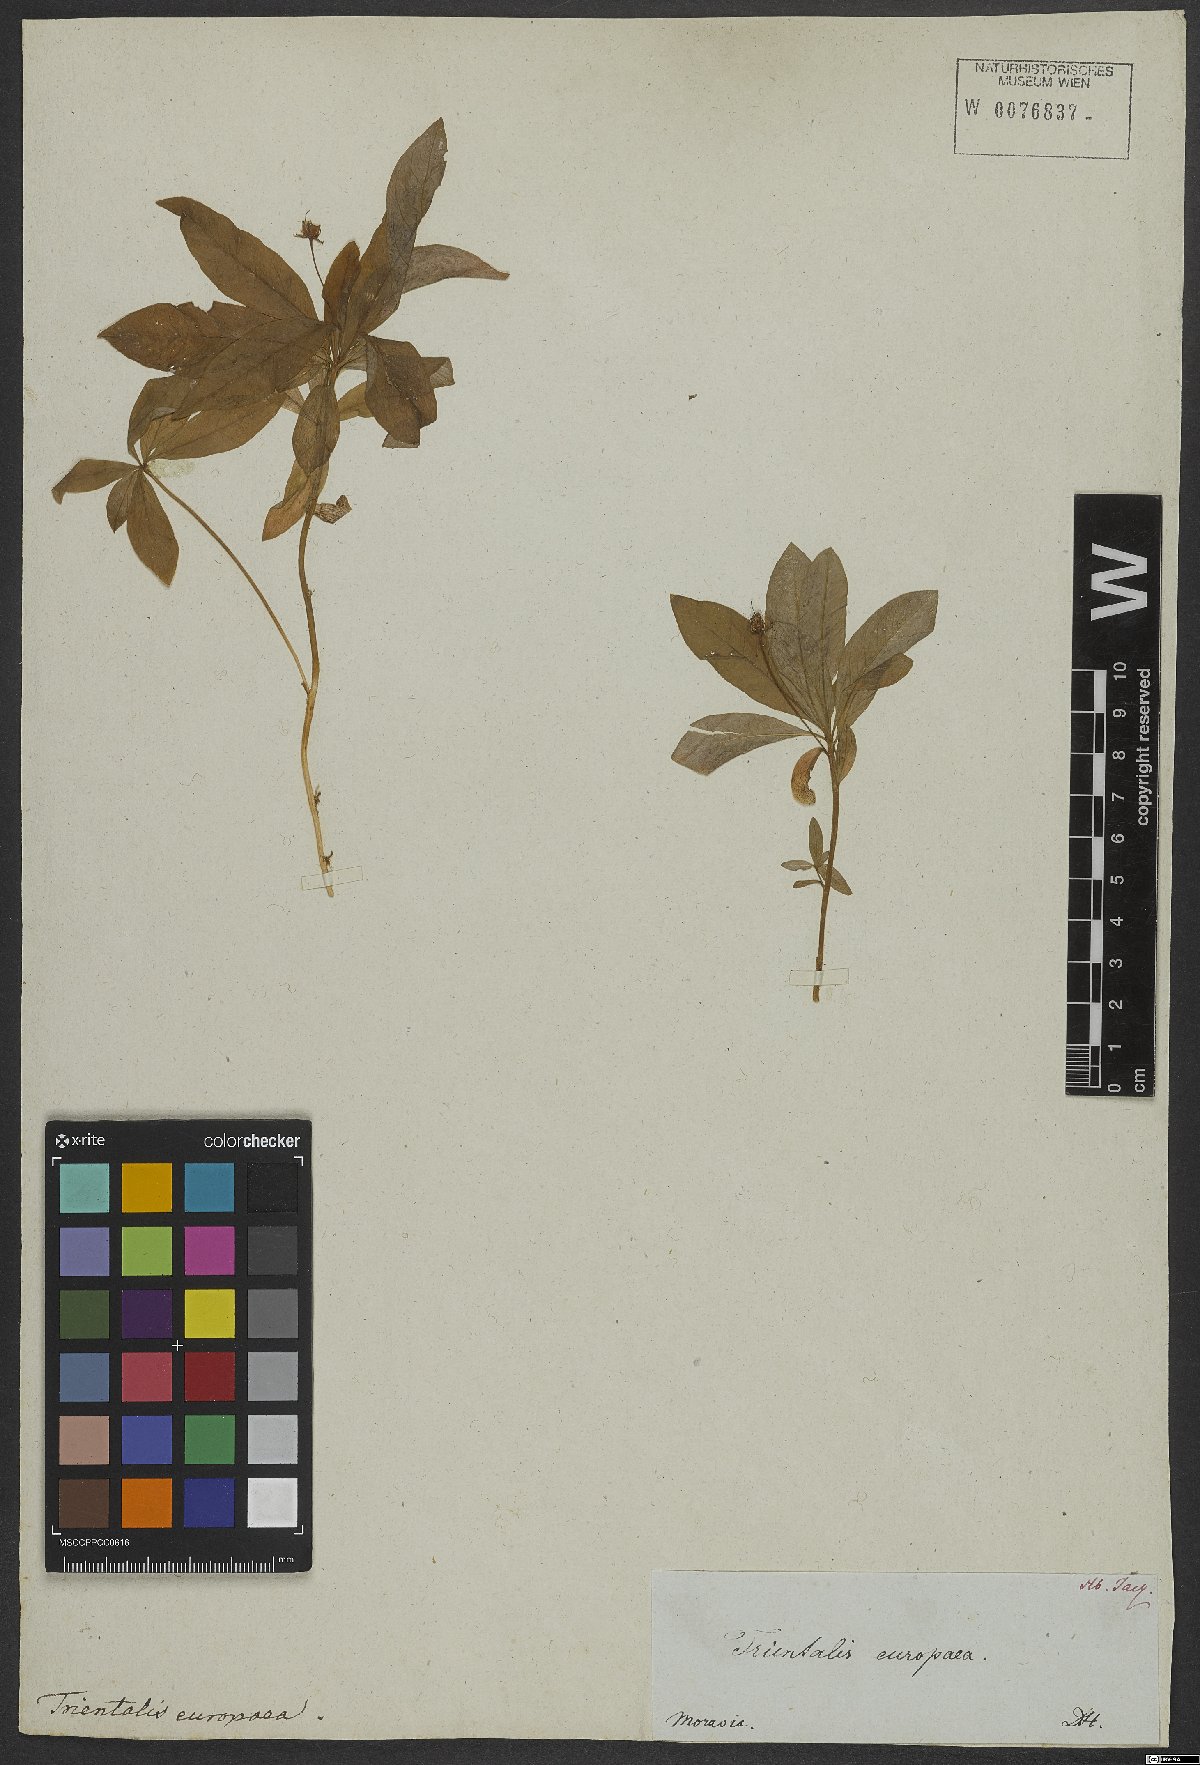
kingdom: Plantae
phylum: Tracheophyta
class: Magnoliopsida
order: Ericales
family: Primulaceae
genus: Lysimachia
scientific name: Lysimachia europaea
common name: Arctic starflower
